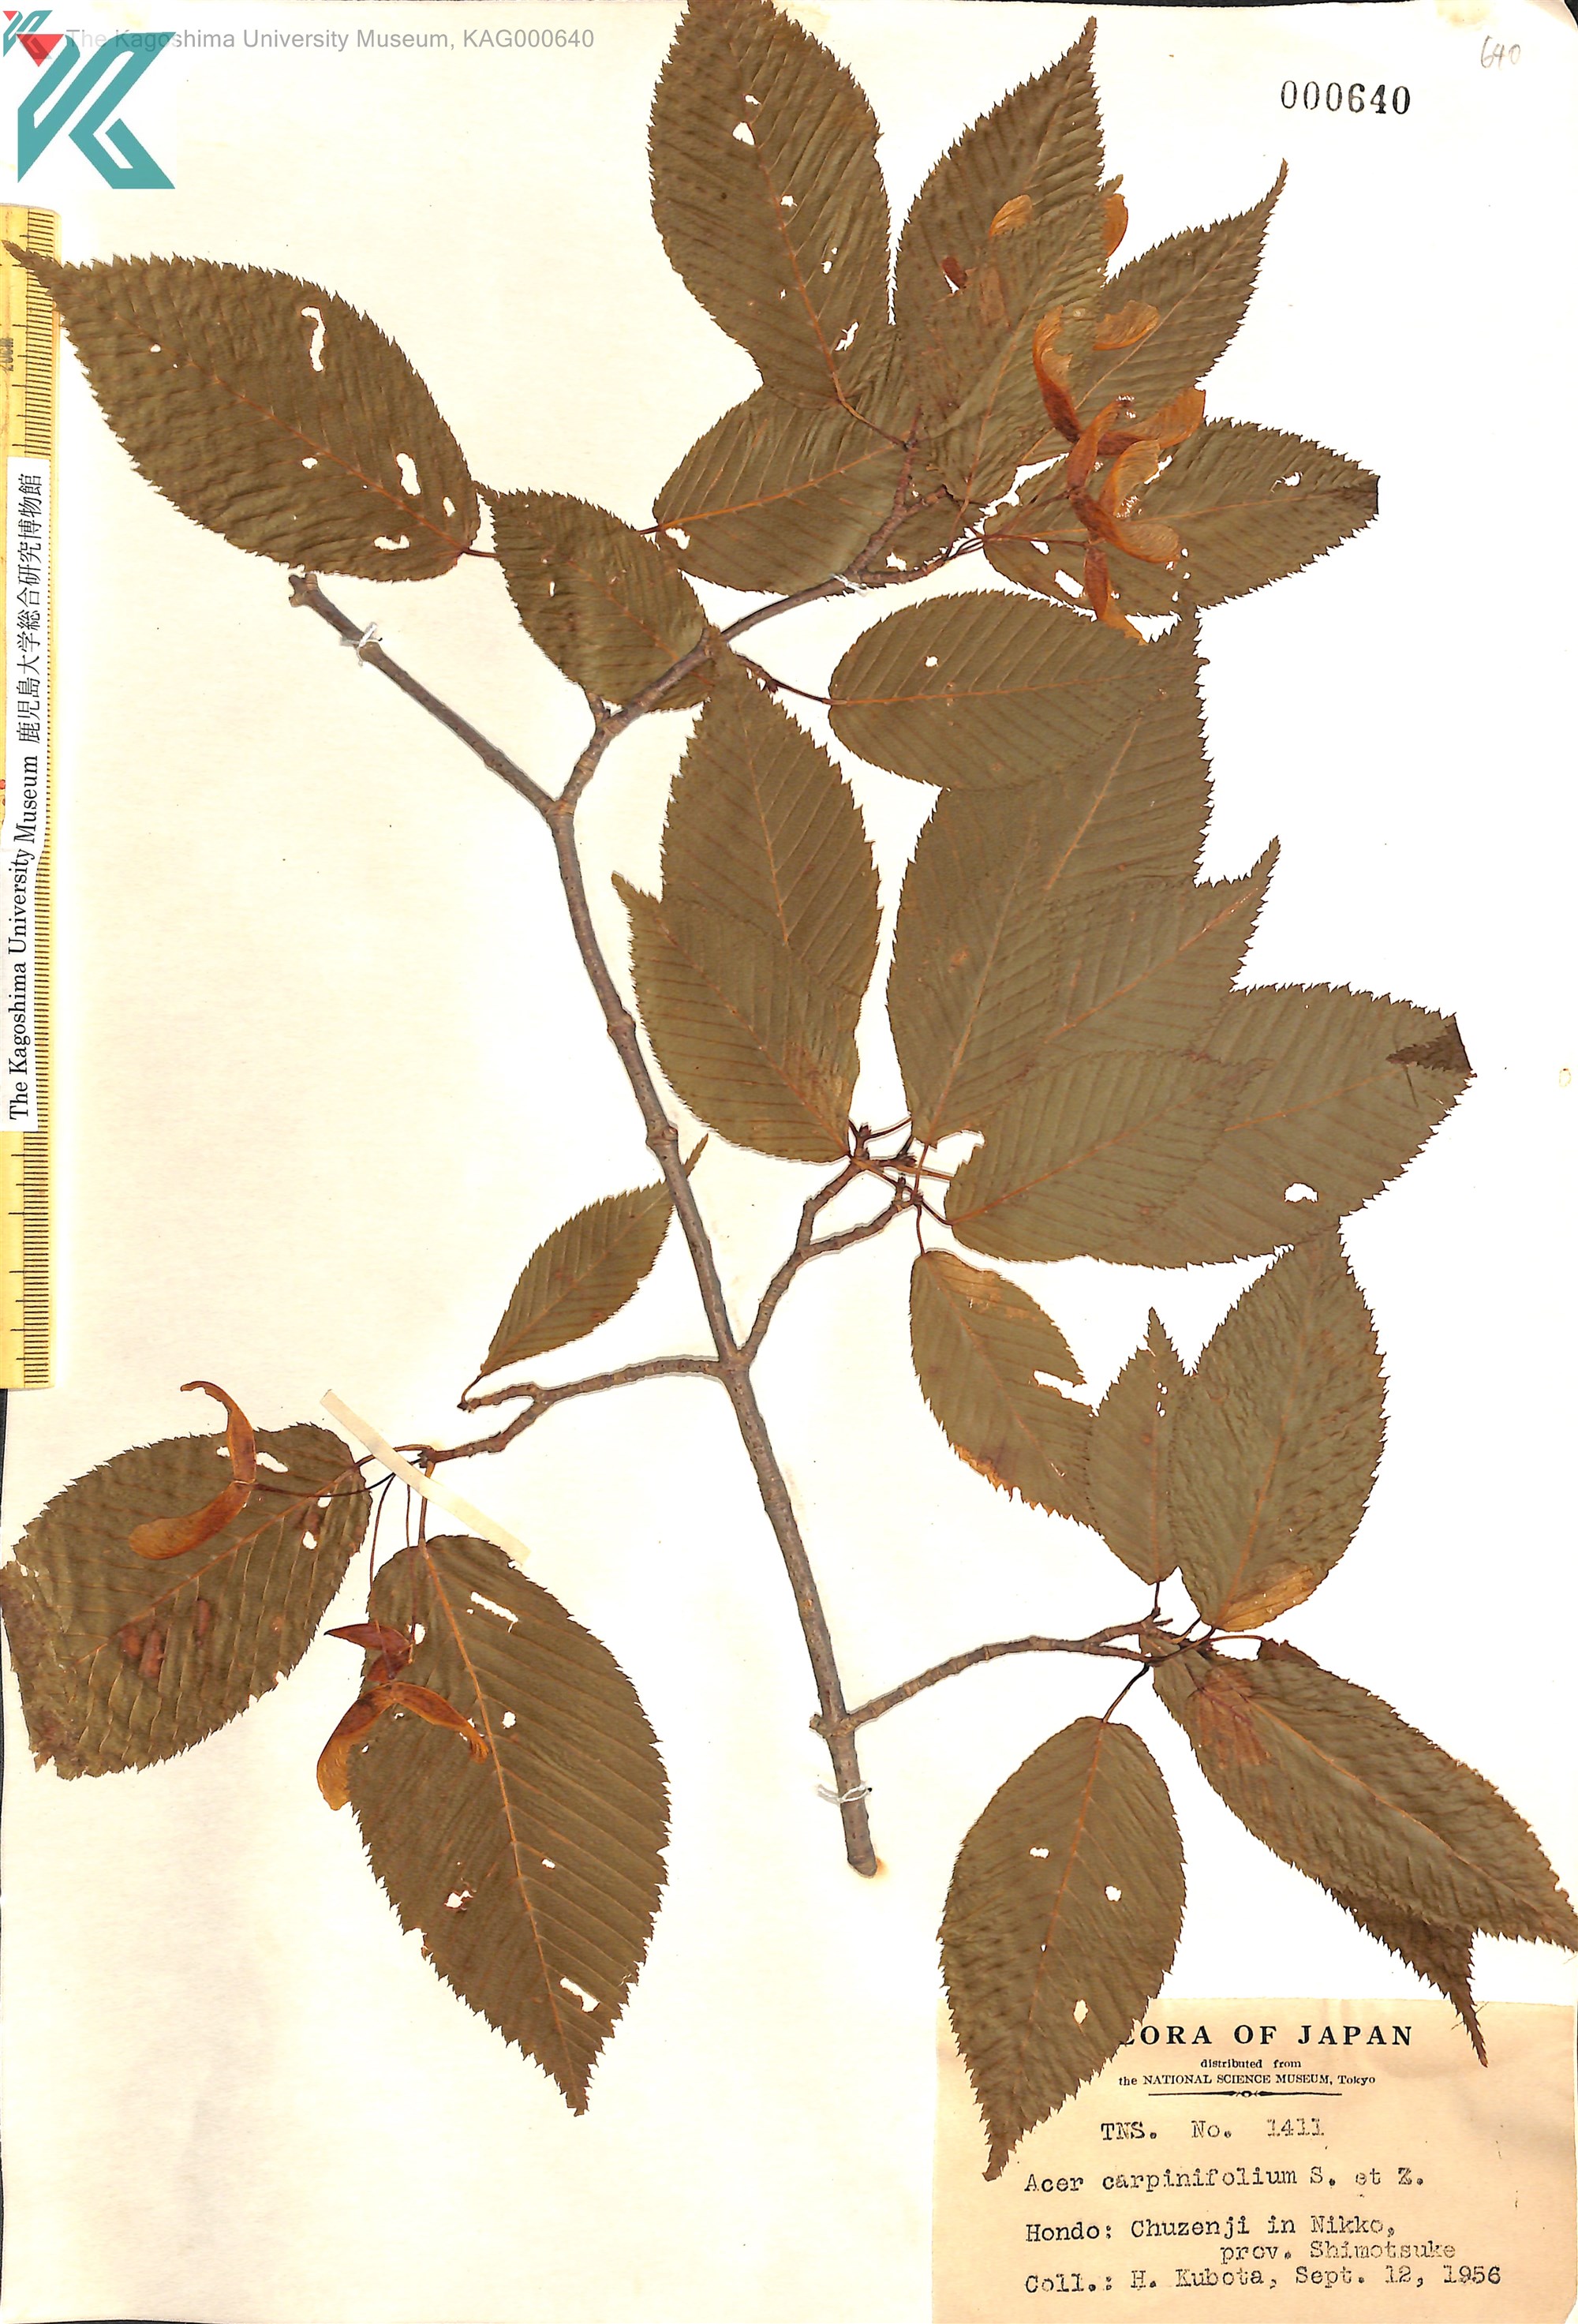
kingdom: Plantae
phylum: Tracheophyta
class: Magnoliopsida
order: Sapindales
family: Sapindaceae
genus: Acer
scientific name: Acer carpinifolium
